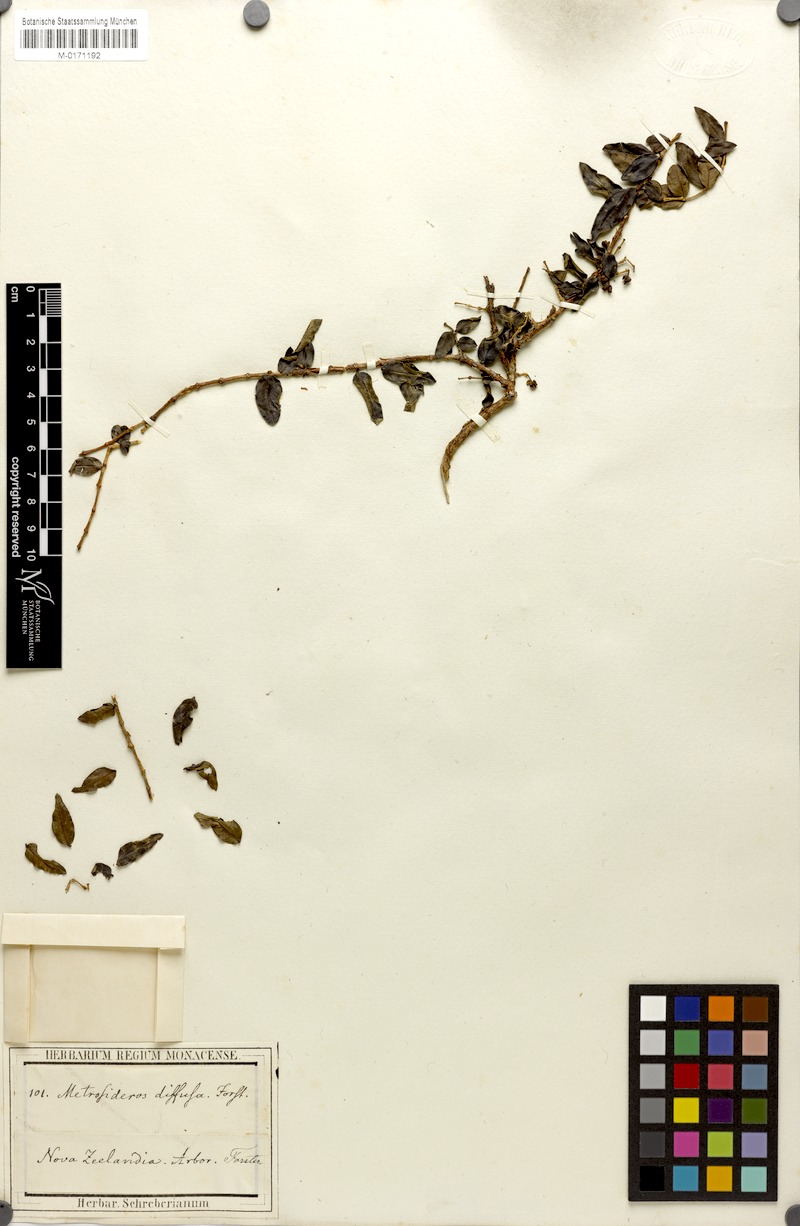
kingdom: Plantae
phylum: Tracheophyta
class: Magnoliopsida
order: Myrtales
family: Myrtaceae
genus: Metrosideros
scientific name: Metrosideros diffusa
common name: Small ratavine
